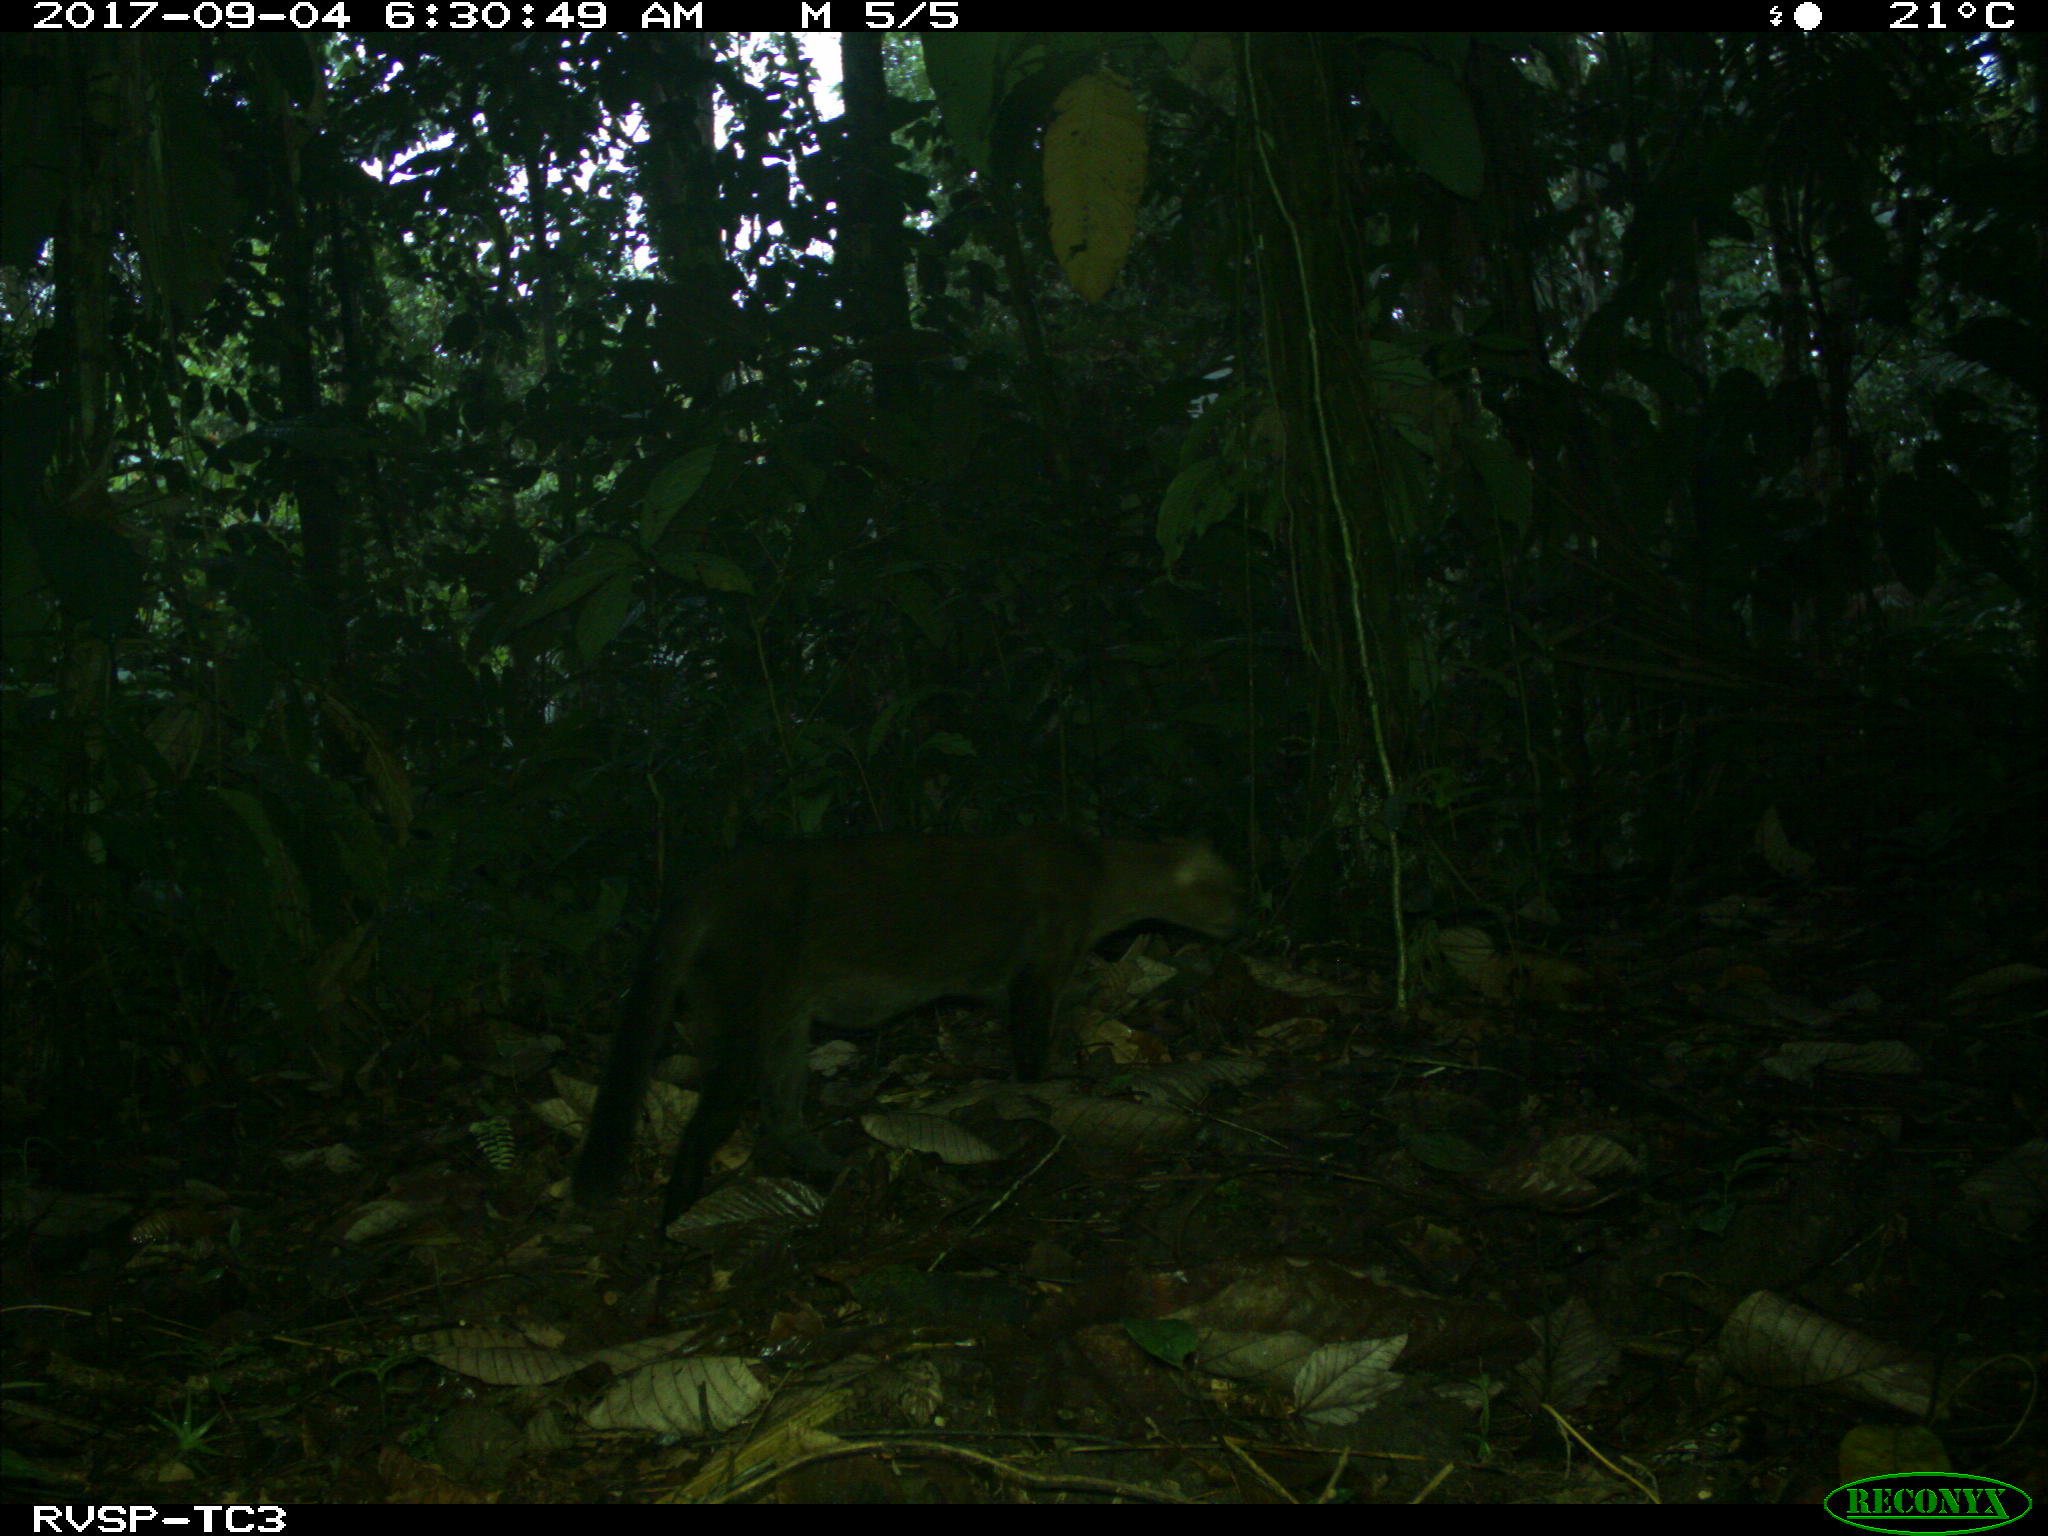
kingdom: Animalia
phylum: Chordata
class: Mammalia
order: Carnivora
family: Felidae
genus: Puma
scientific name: Puma yagouaroundi
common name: Jaguarundi
